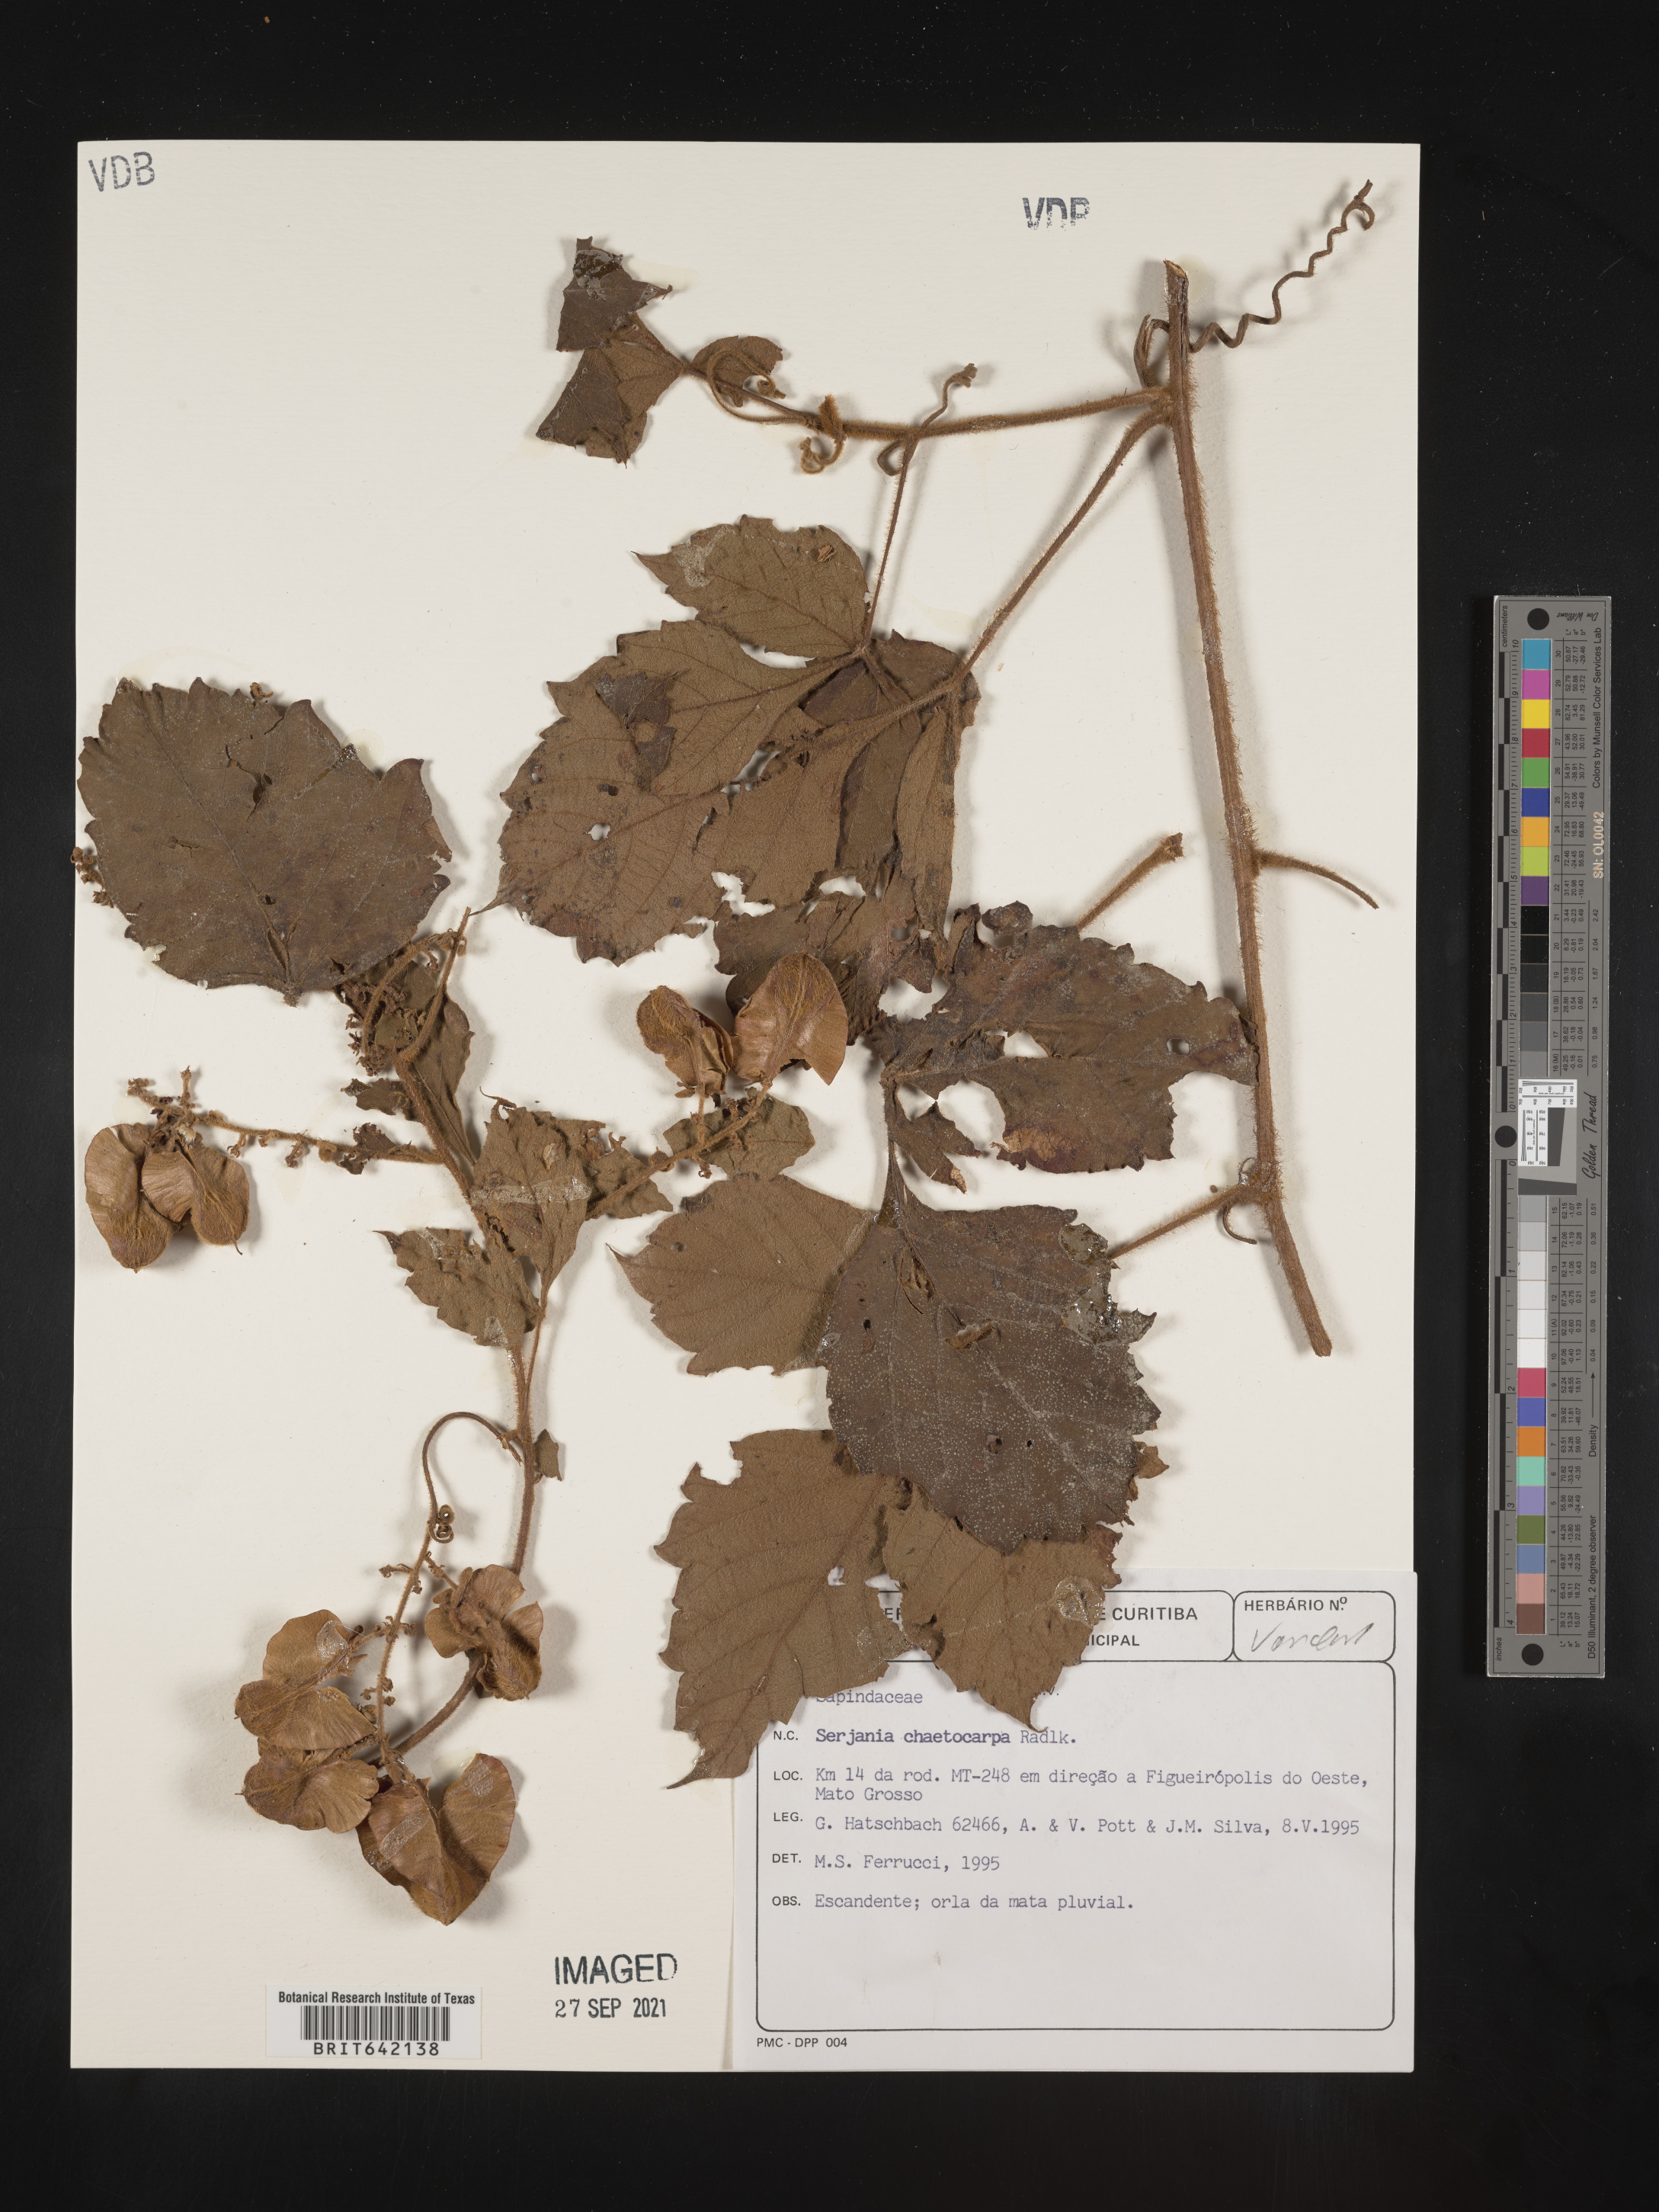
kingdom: Plantae
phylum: Tracheophyta
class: Magnoliopsida
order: Sapindales
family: Sapindaceae
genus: Serjania
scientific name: Serjania
